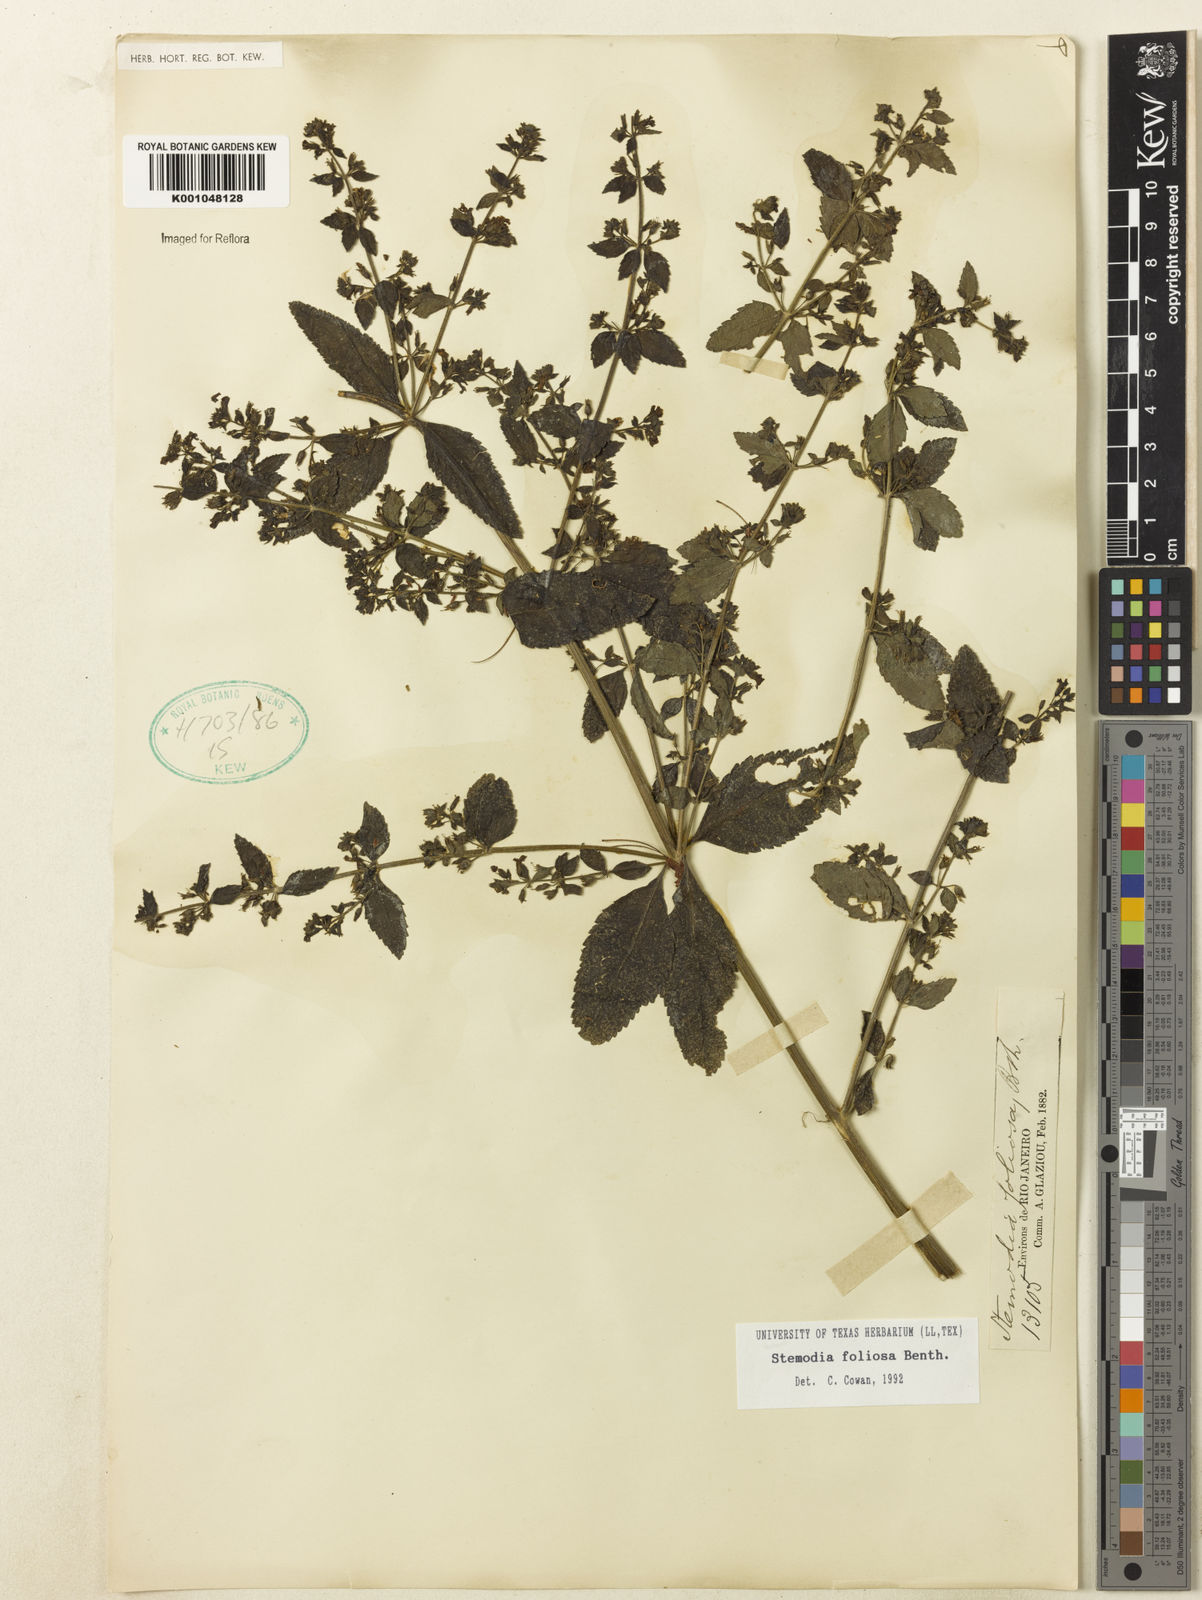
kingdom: Plantae
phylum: Tracheophyta
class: Magnoliopsida
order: Lamiales
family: Plantaginaceae
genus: Stemodia
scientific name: Stemodia foliosa
